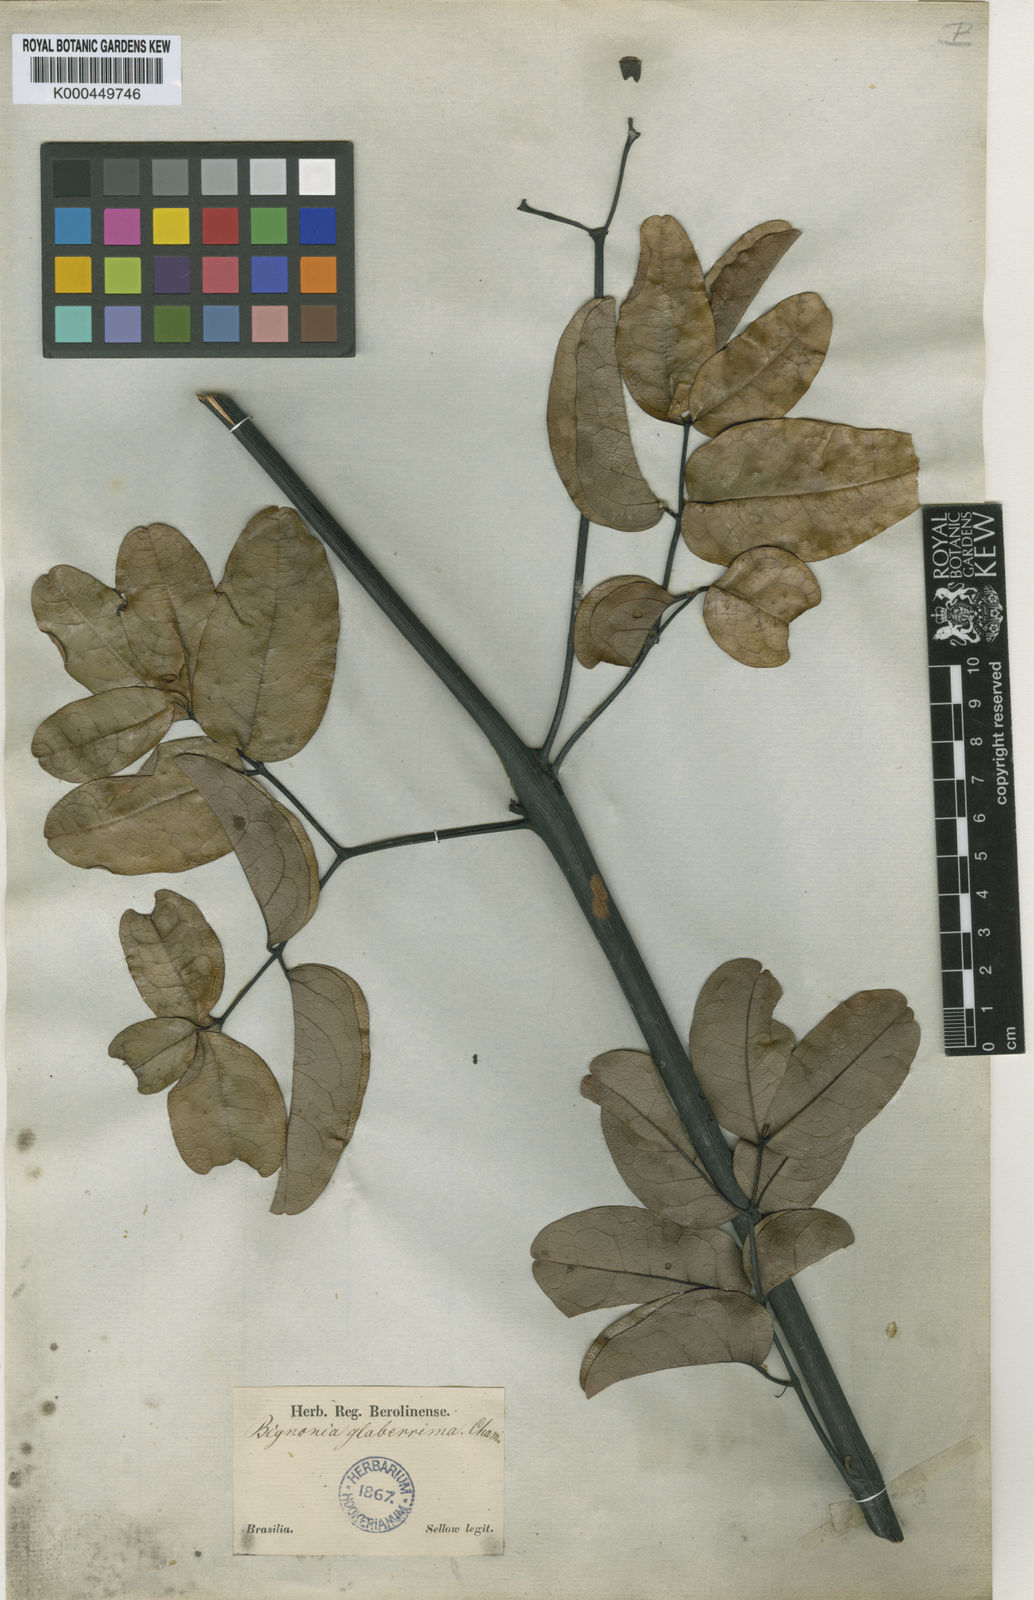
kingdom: Plantae
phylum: Tracheophyta
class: Magnoliopsida
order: Lamiales
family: Bignoniaceae
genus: Adenocalymma
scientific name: Adenocalymma pedunculatum
